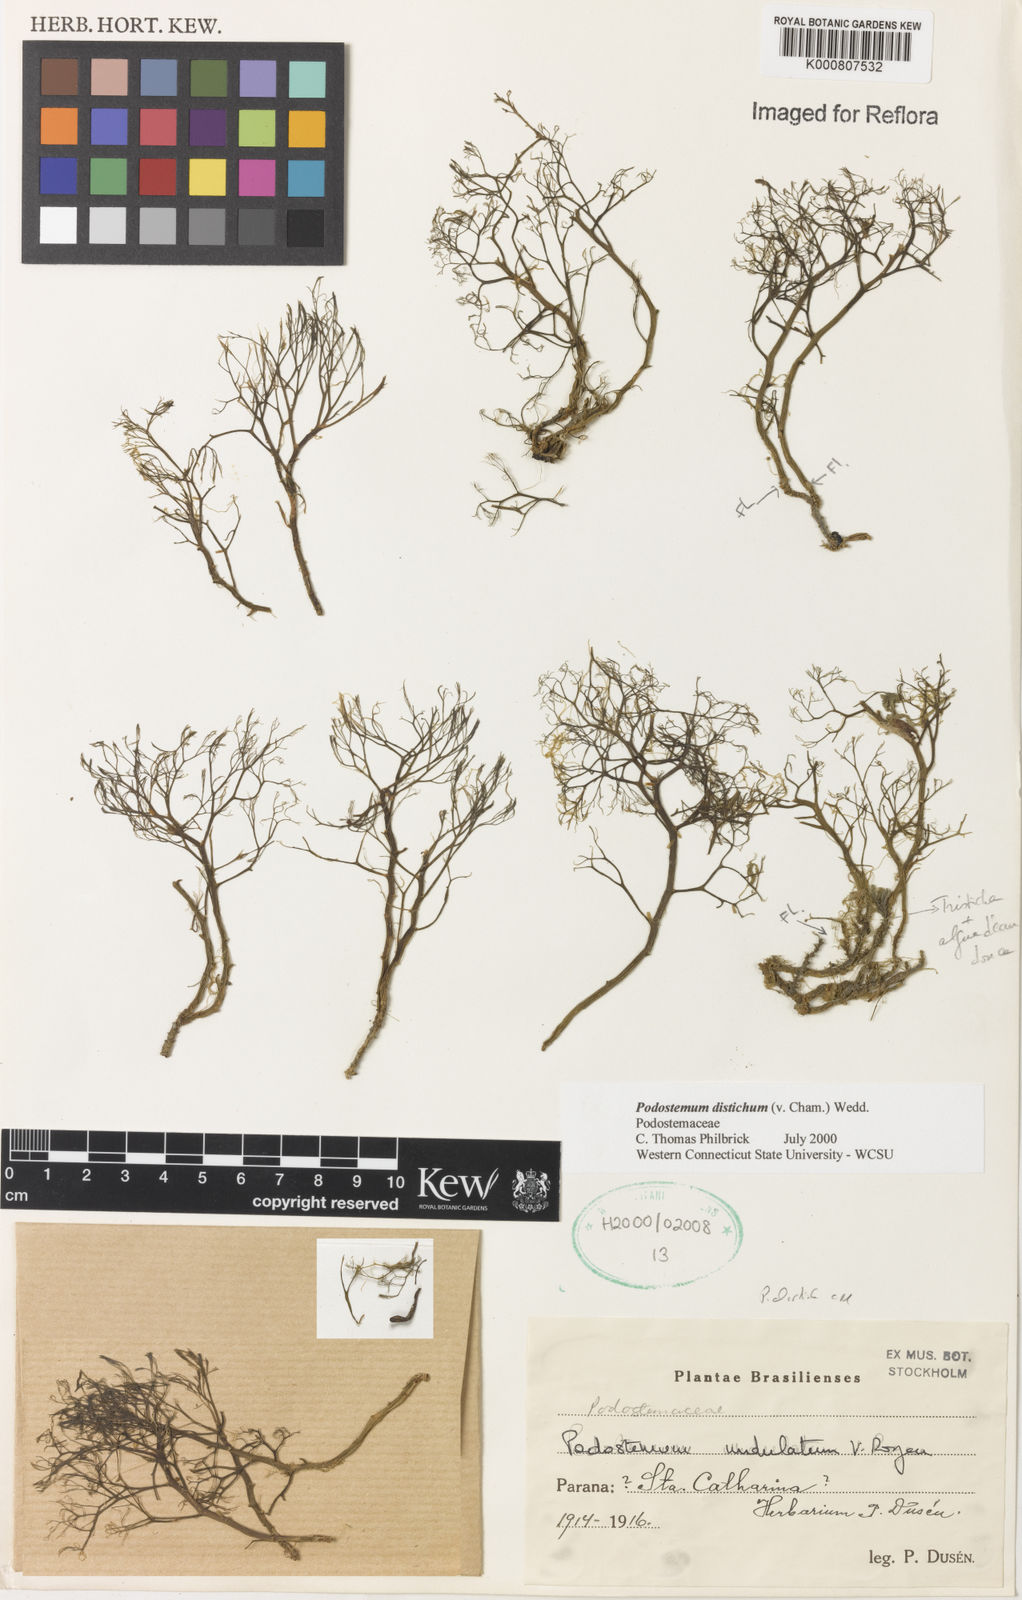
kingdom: Plantae
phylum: Tracheophyta
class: Magnoliopsida
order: Malpighiales
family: Podostemaceae
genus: Podostemum
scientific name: Podostemum distichum
